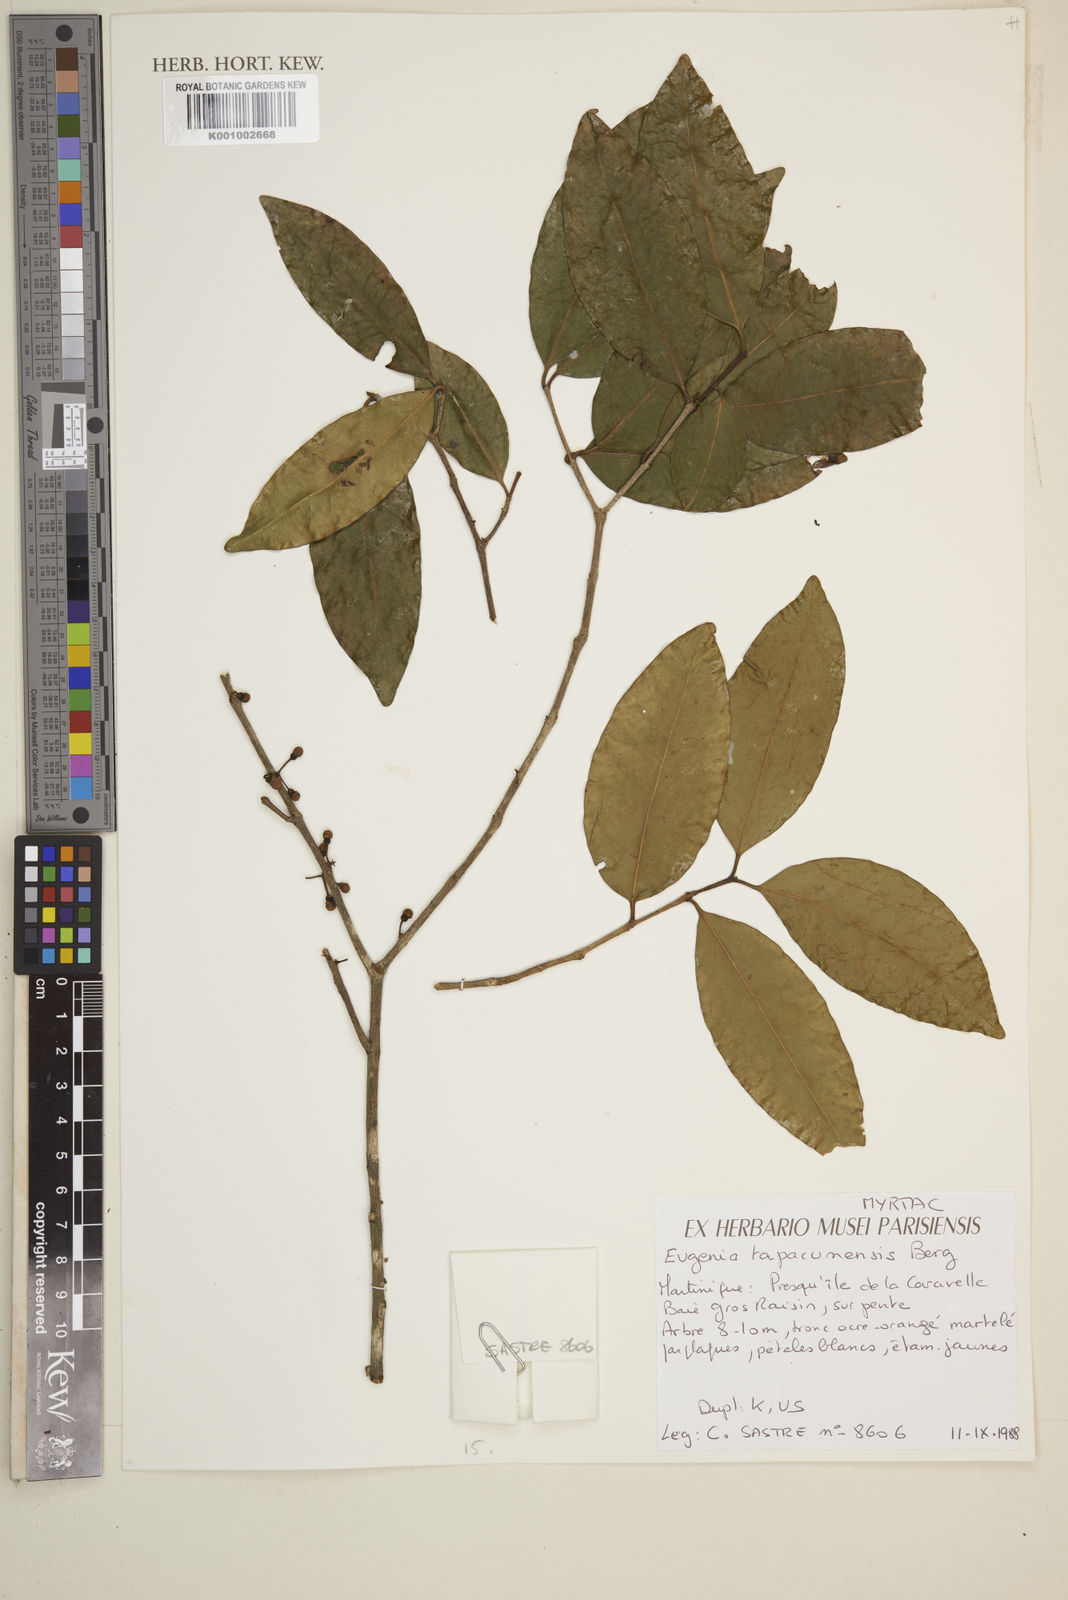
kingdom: Plantae
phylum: Tracheophyta
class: Magnoliopsida
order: Myrtales
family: Myrtaceae
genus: Eugenia
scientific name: Eugenia tapacumensis
